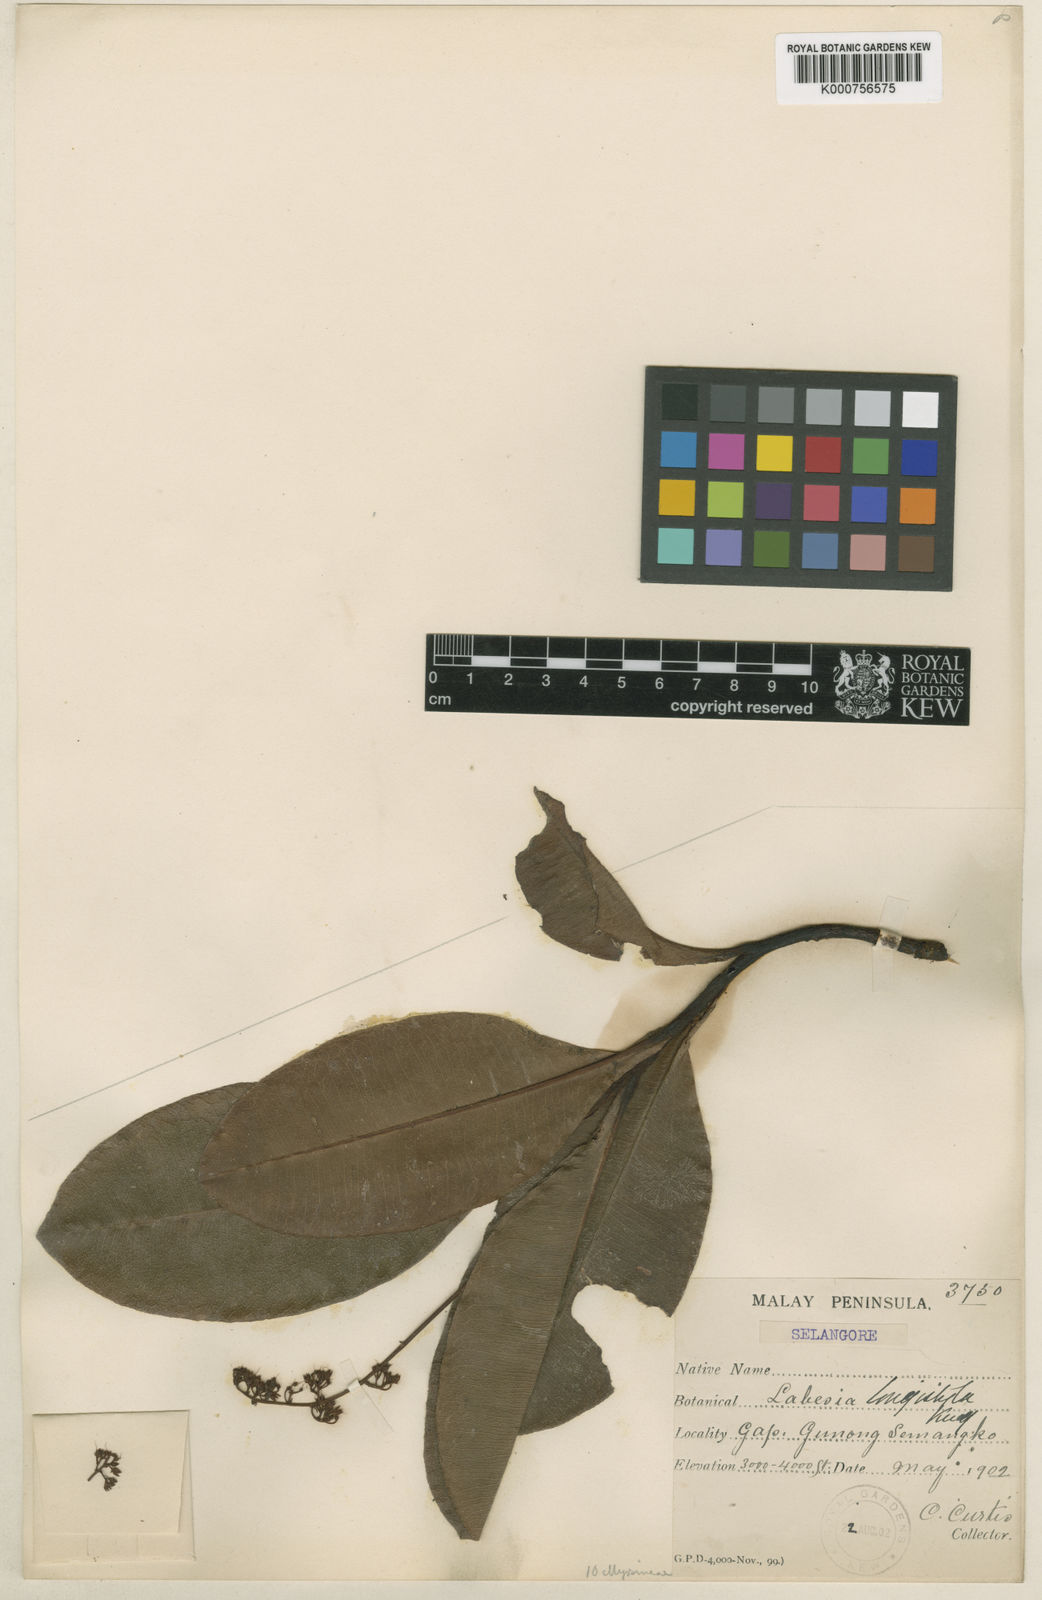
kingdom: Plantae
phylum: Tracheophyta
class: Magnoliopsida
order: Ericales
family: Primulaceae
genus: Labisia
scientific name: Labisia longistyla
